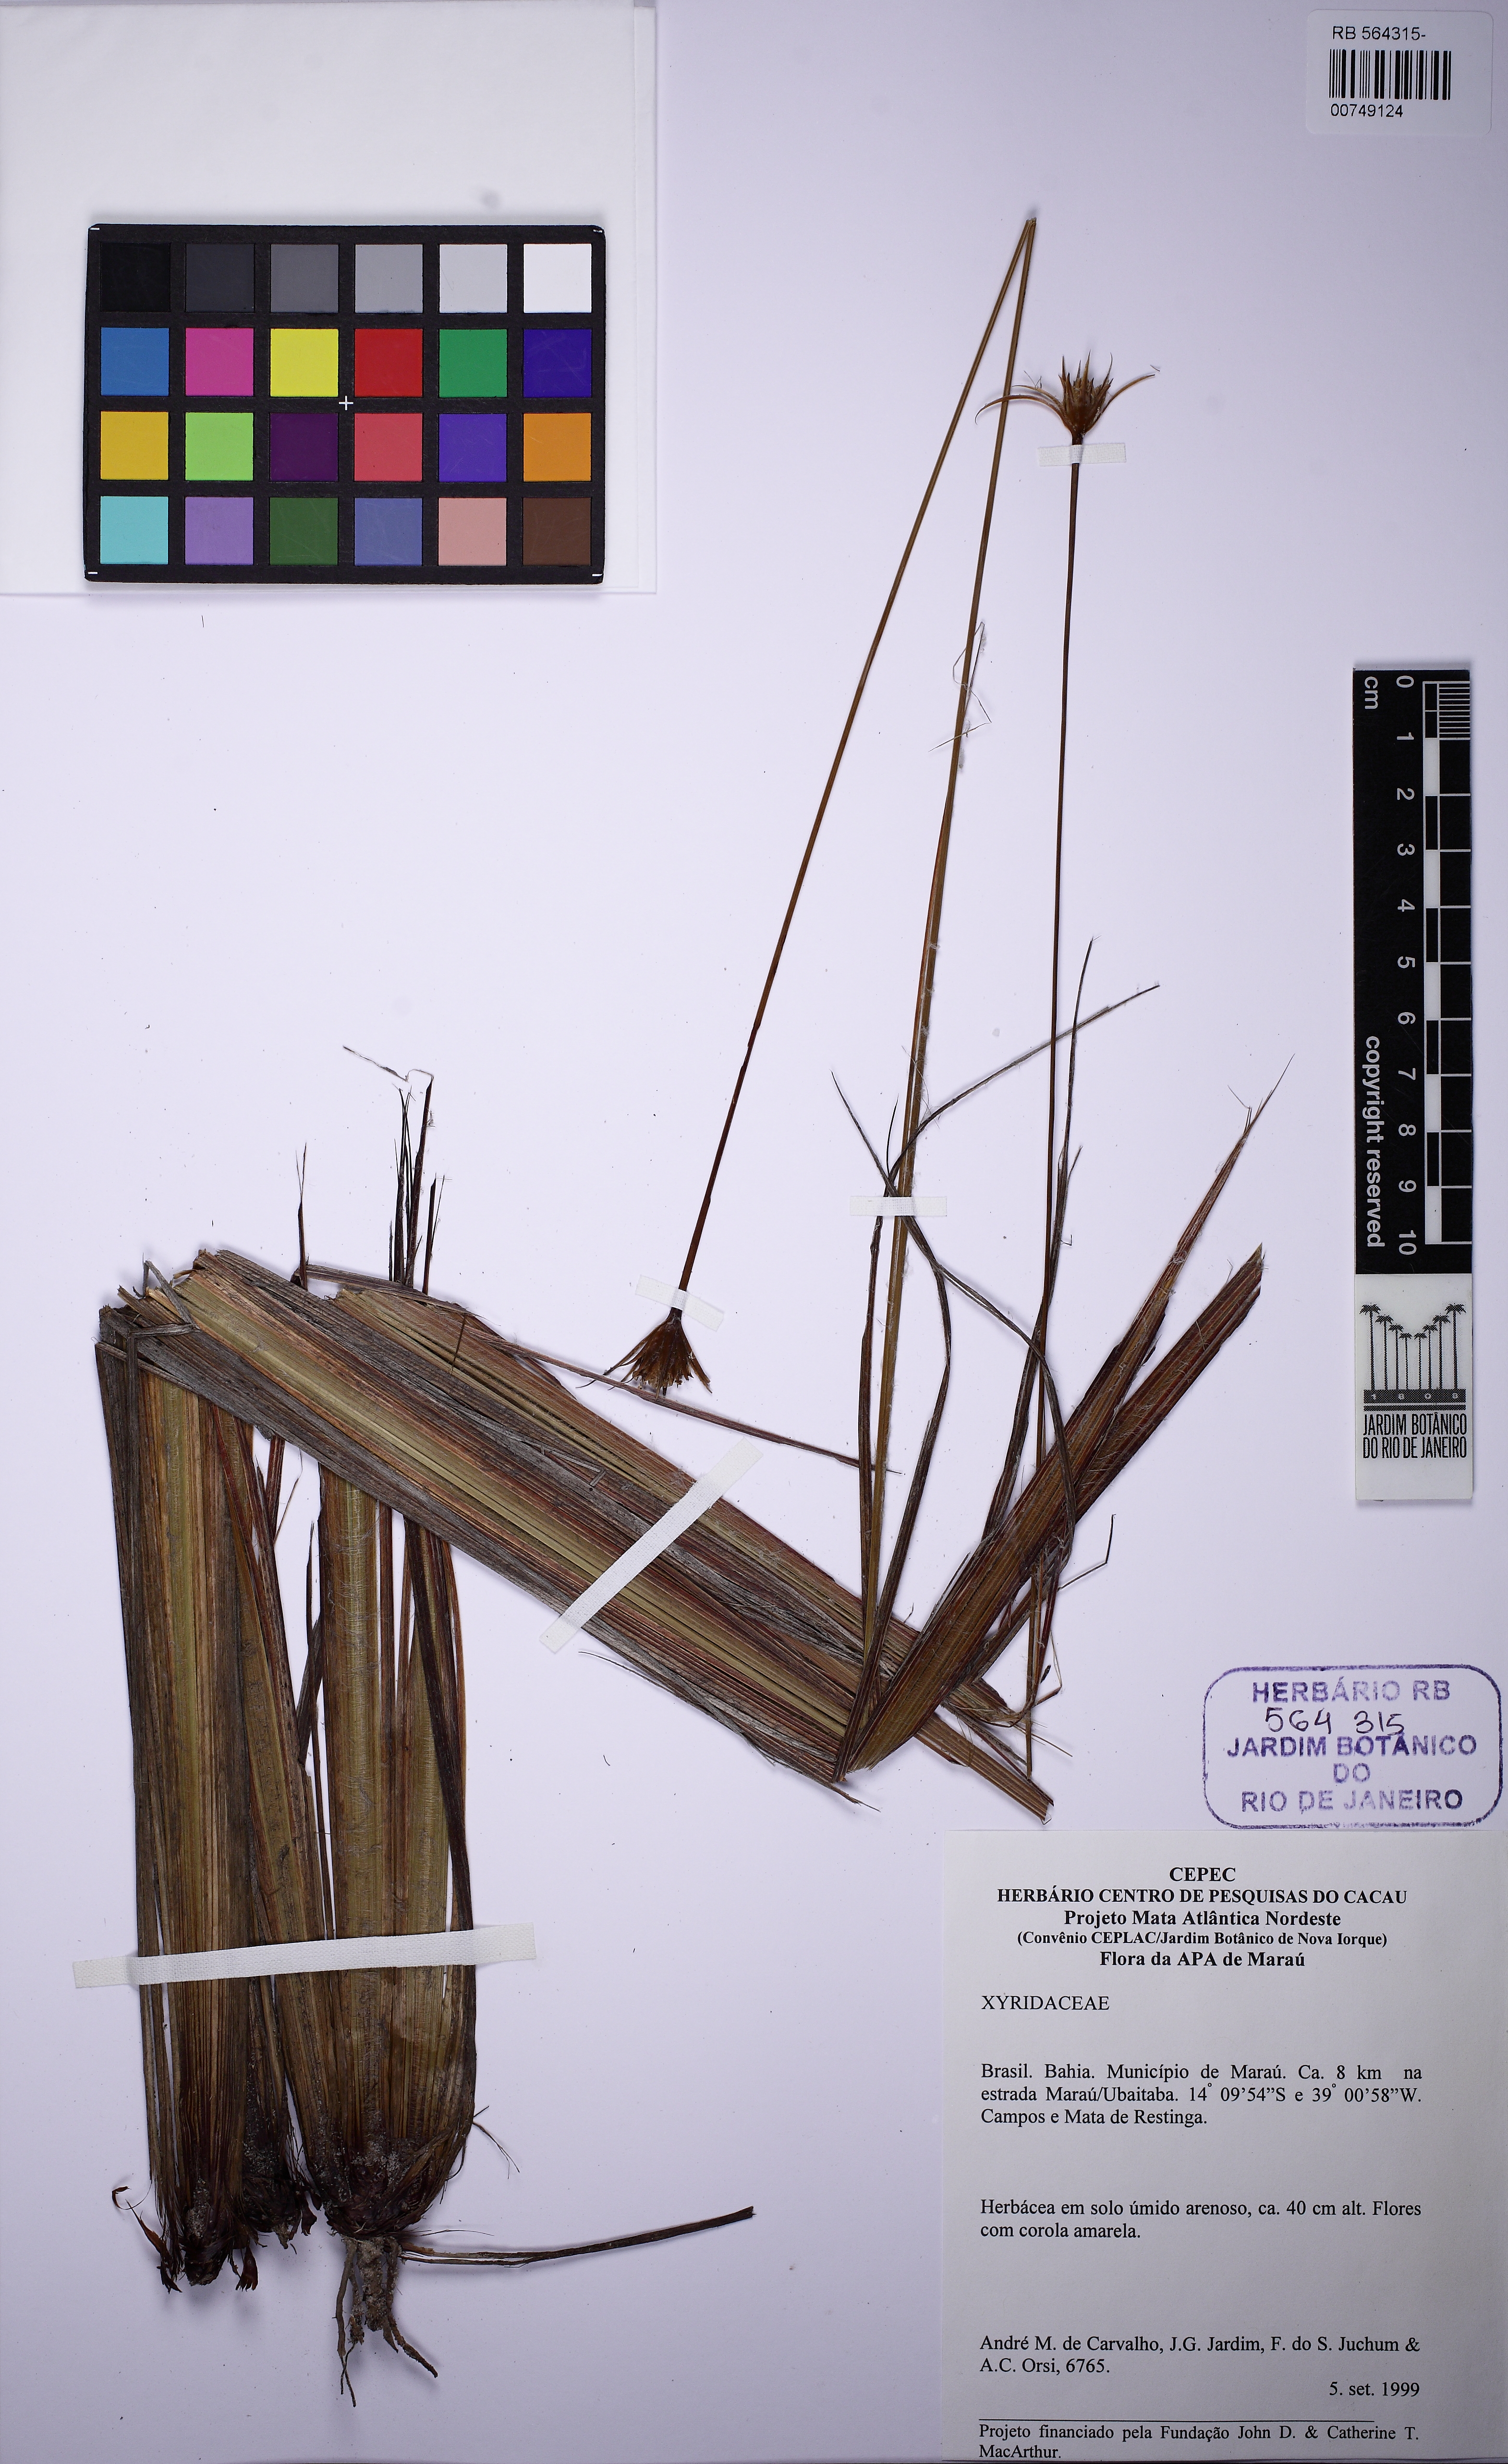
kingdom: Plantae
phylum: Tracheophyta
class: Liliopsida
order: Poales
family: Xyridaceae
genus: Xyris
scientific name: Xyris mertensiana
